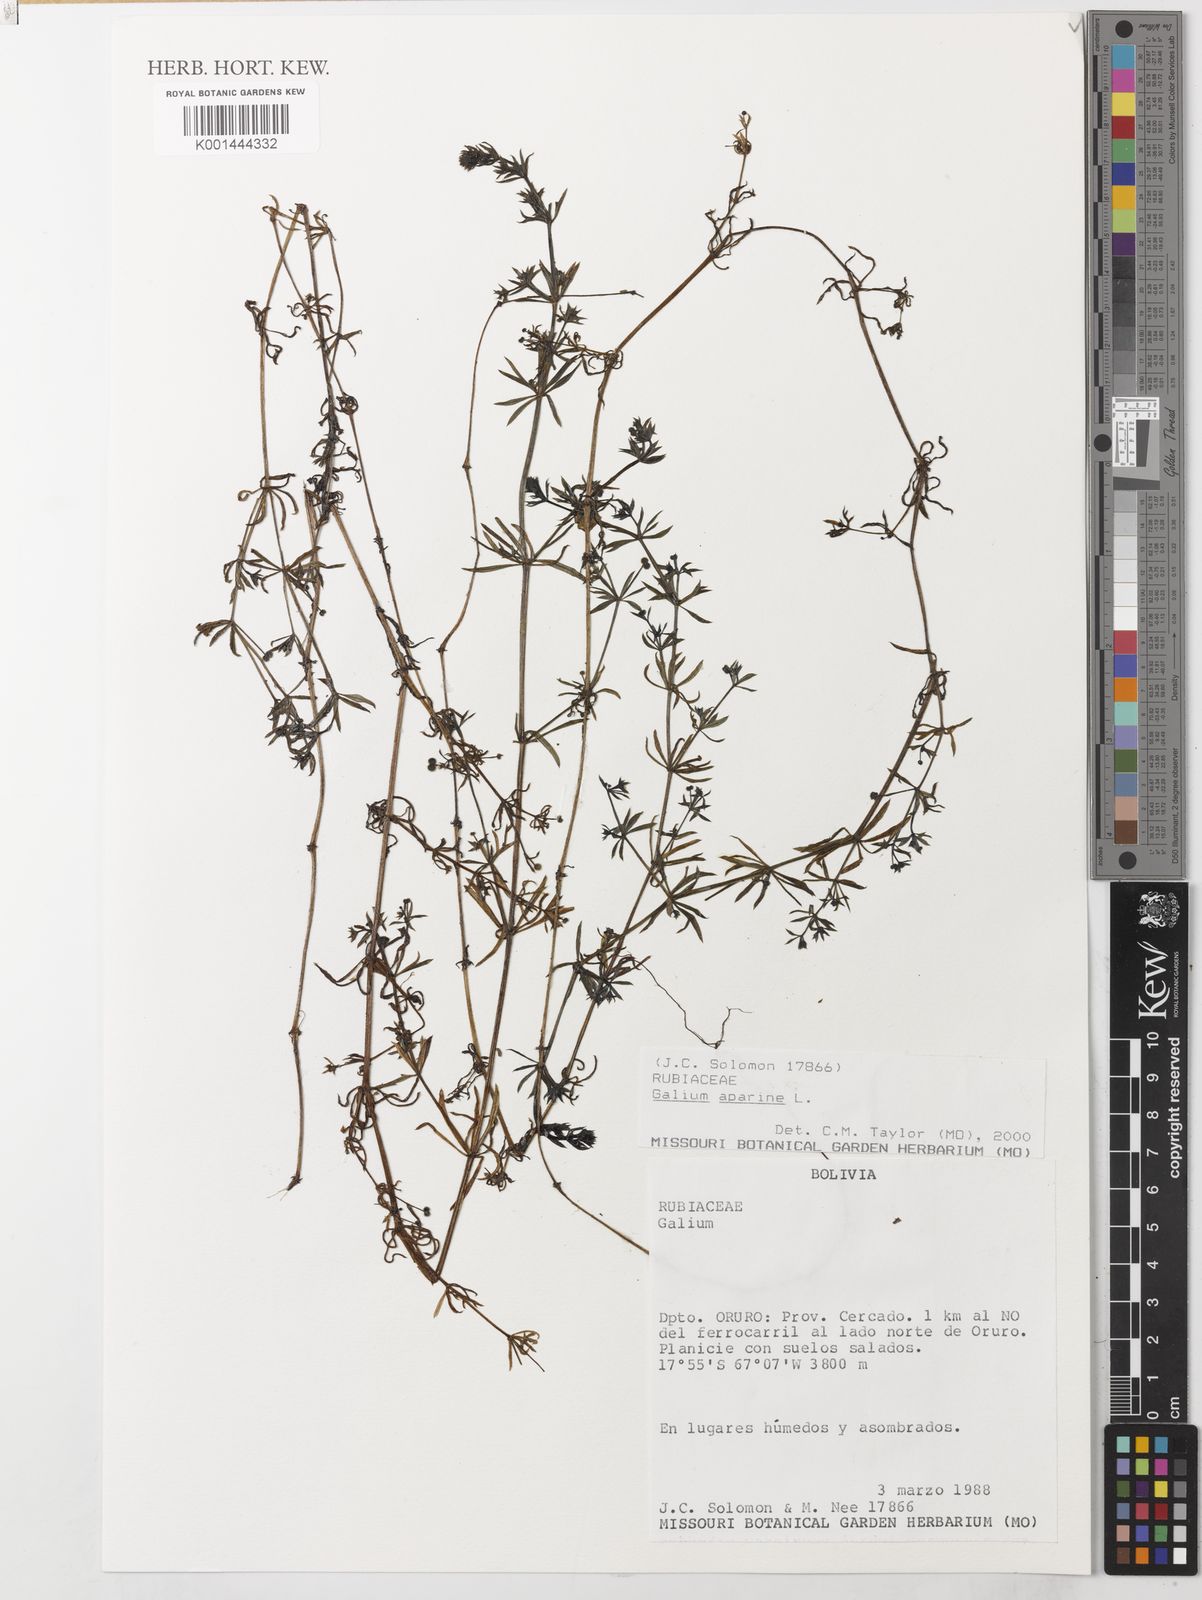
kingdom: Plantae
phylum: Tracheophyta
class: Magnoliopsida
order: Gentianales
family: Rubiaceae
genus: Galium
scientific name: Galium aparine
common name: Cleavers
